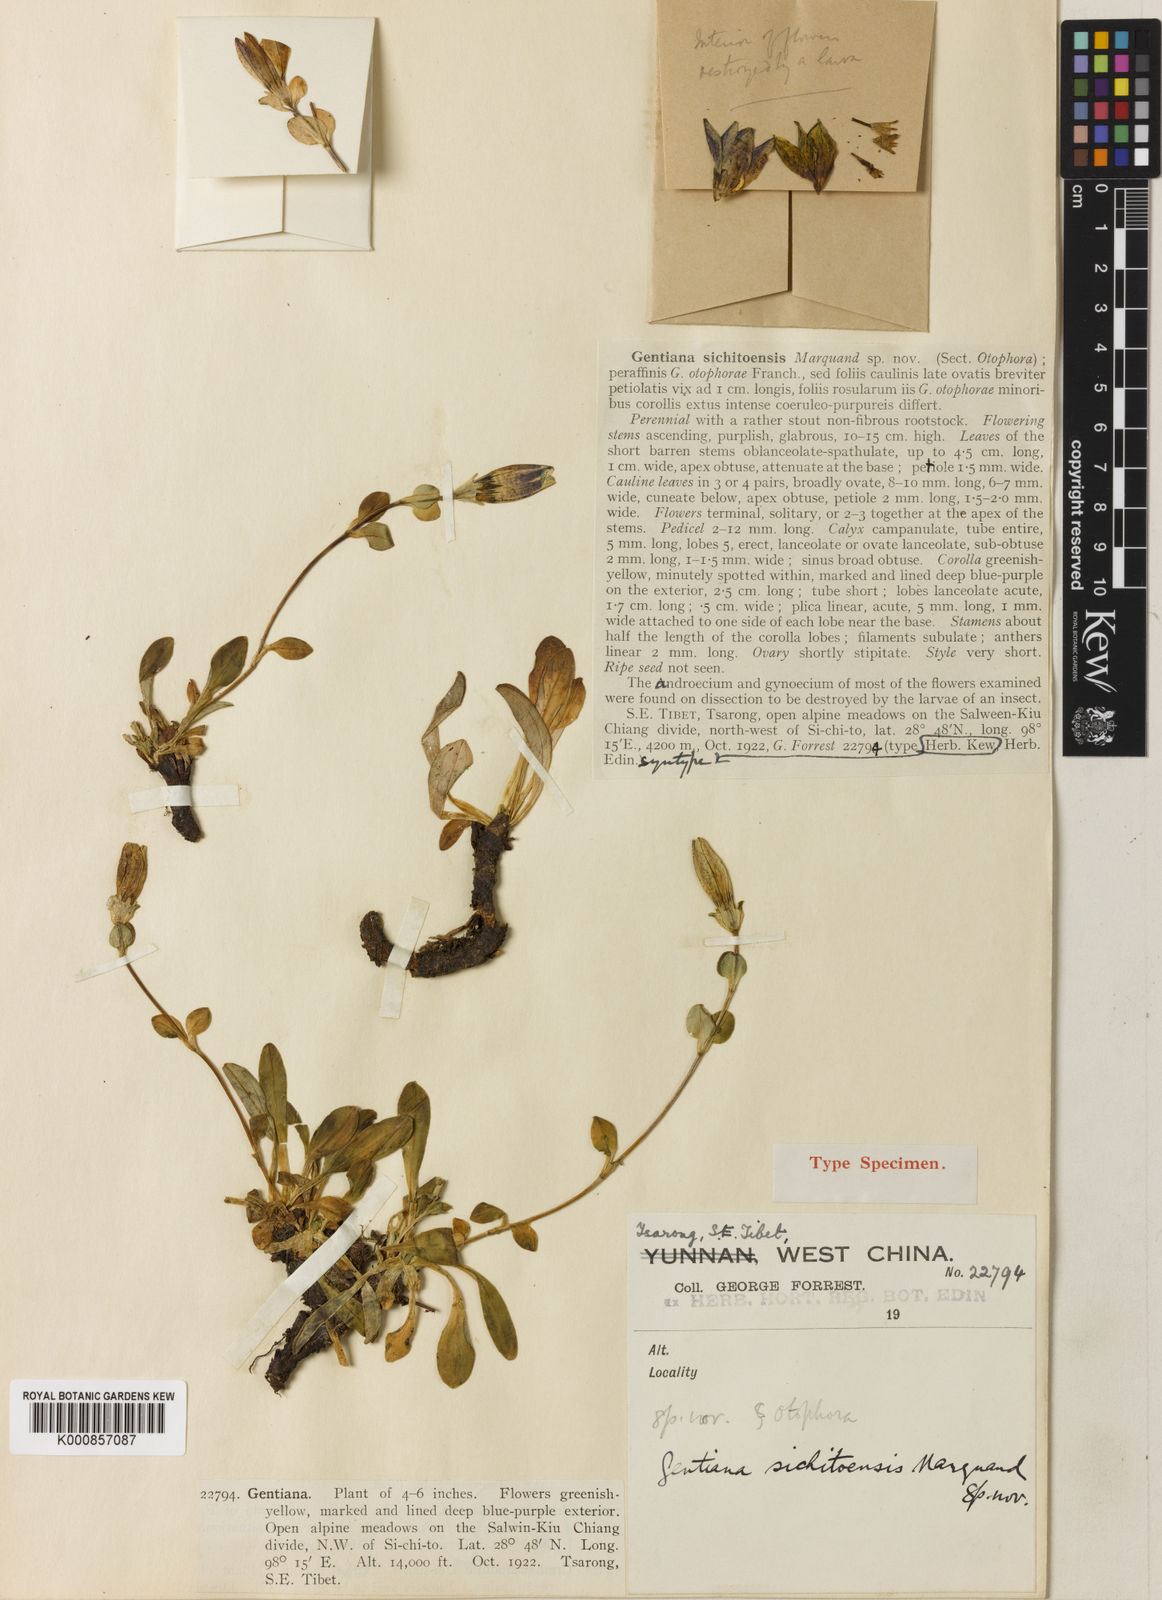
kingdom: Plantae
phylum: Tracheophyta
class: Magnoliopsida
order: Gentianales
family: Gentianaceae
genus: Kuepferia
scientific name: Kuepferia sichitoensis
